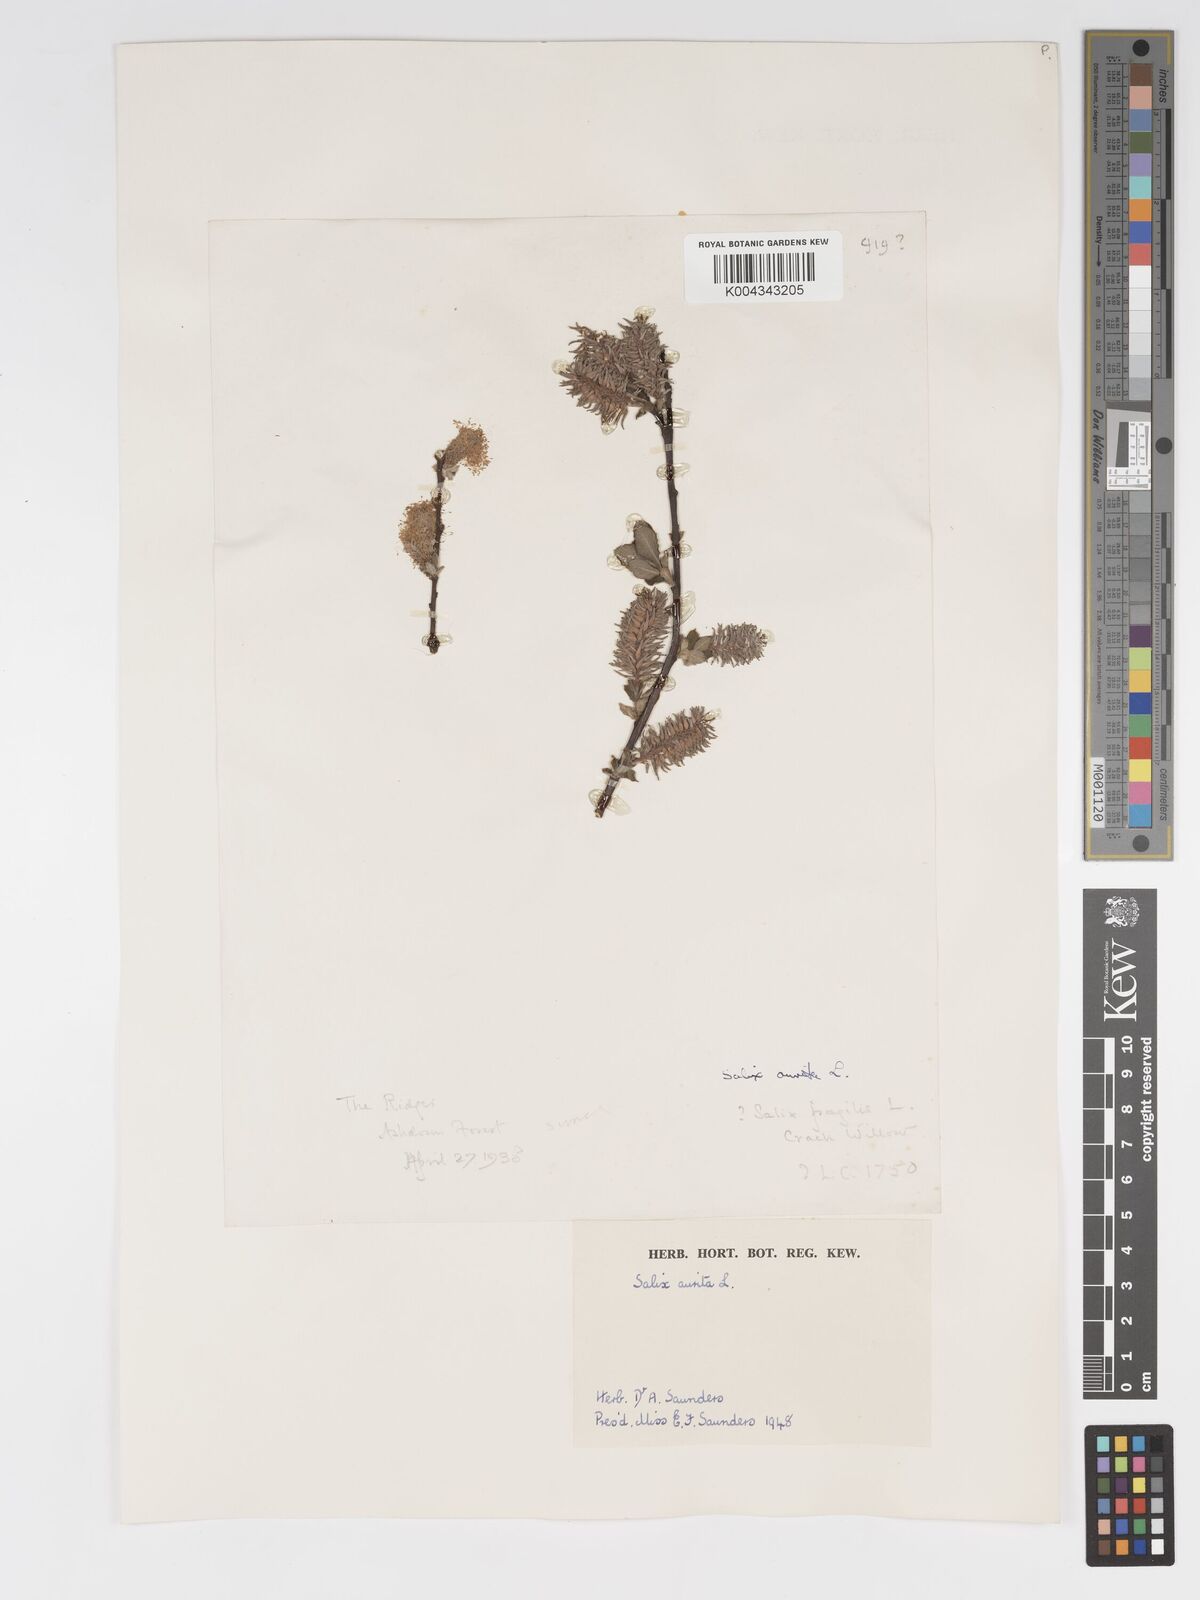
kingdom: Plantae
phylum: Tracheophyta
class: Magnoliopsida
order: Malpighiales
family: Salicaceae
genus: Salix
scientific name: Salix aurita
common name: Eared willow
